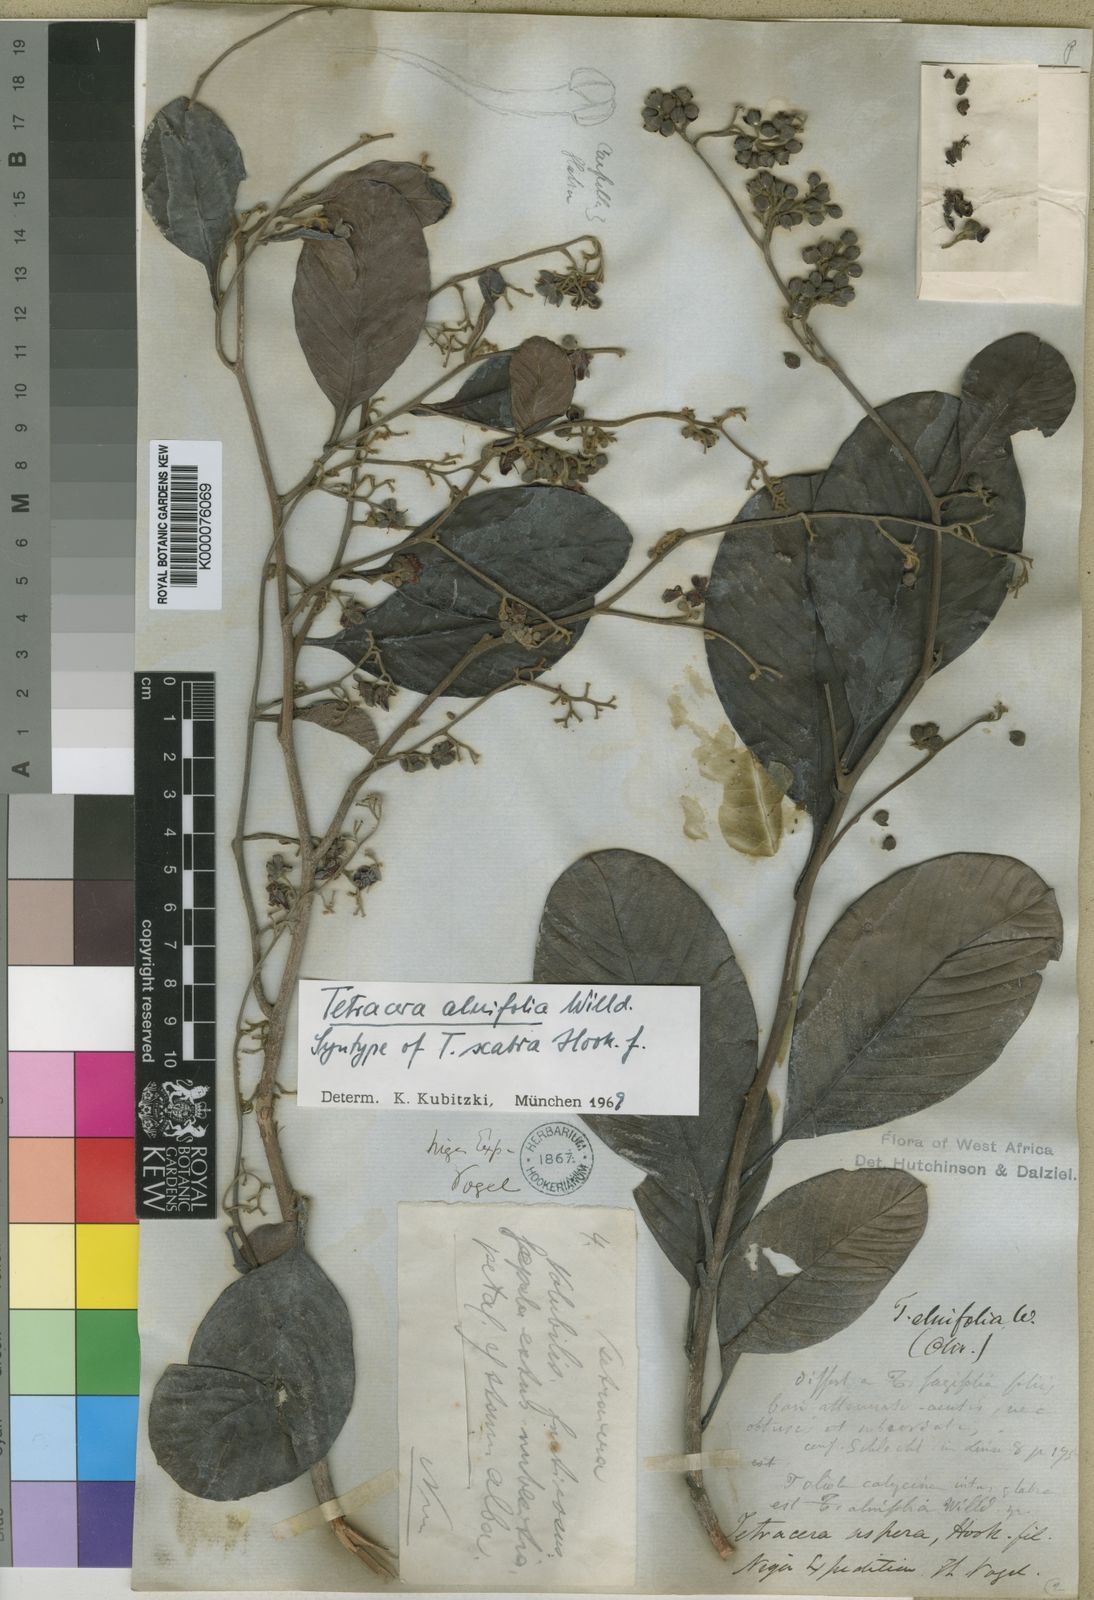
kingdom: Plantae
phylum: Tracheophyta
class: Magnoliopsida
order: Dilleniales
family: Dilleniaceae
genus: Tetracera
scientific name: Tetracera alnifolia
